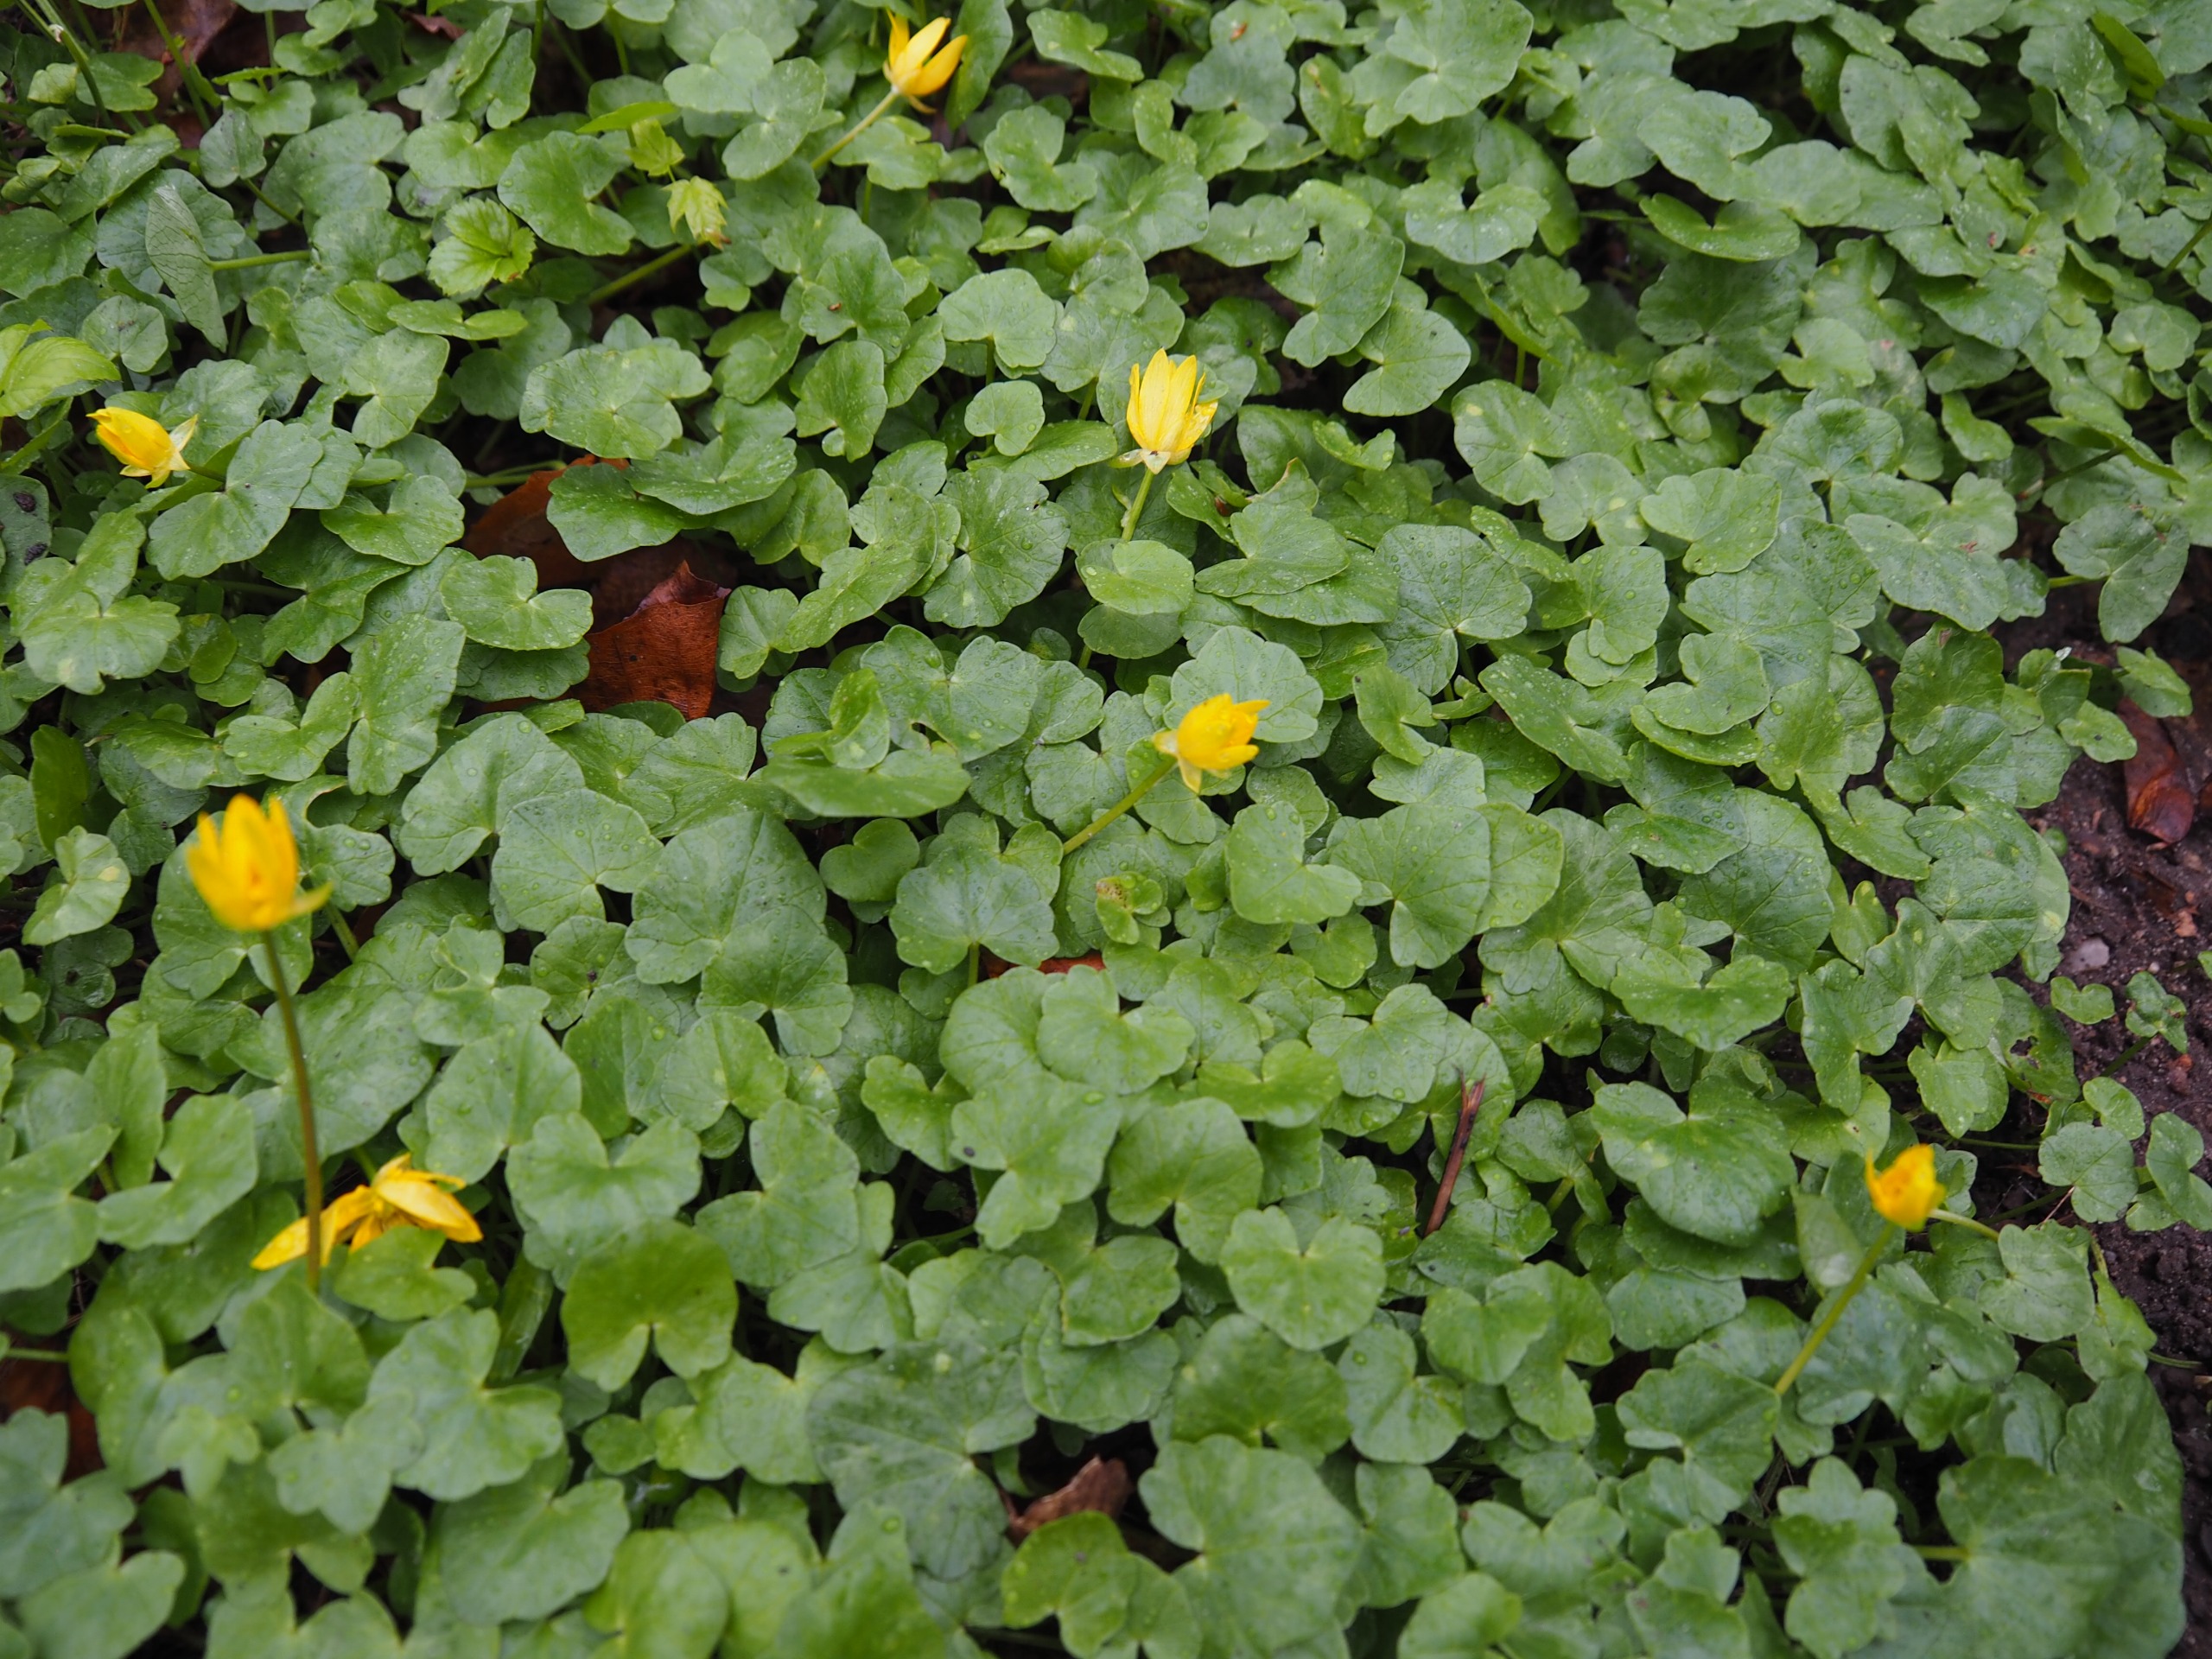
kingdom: Plantae
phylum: Tracheophyta
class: Magnoliopsida
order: Ranunculales
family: Ranunculaceae
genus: Ficaria
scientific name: Ficaria verna
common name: Vorterod
